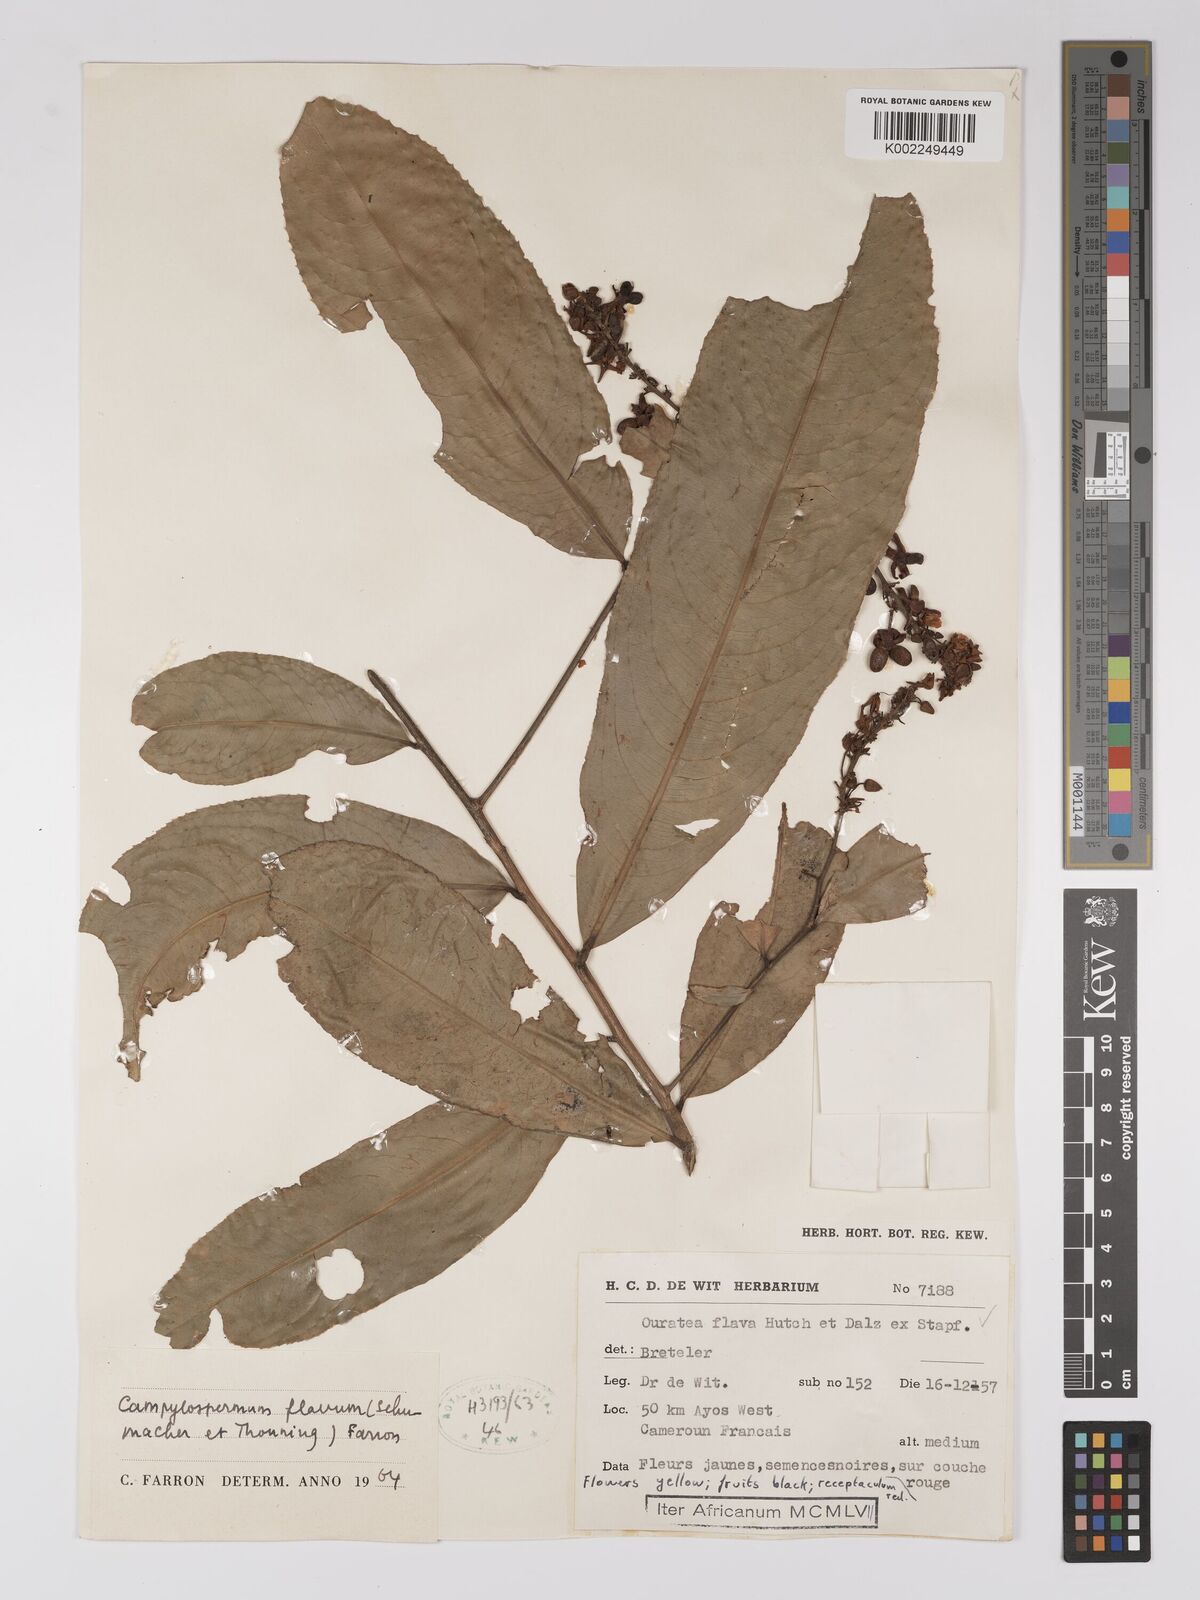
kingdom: Plantae
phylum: Tracheophyta
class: Magnoliopsida
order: Malpighiales
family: Ochnaceae
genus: Campylospermum
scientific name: Campylospermum flavum
